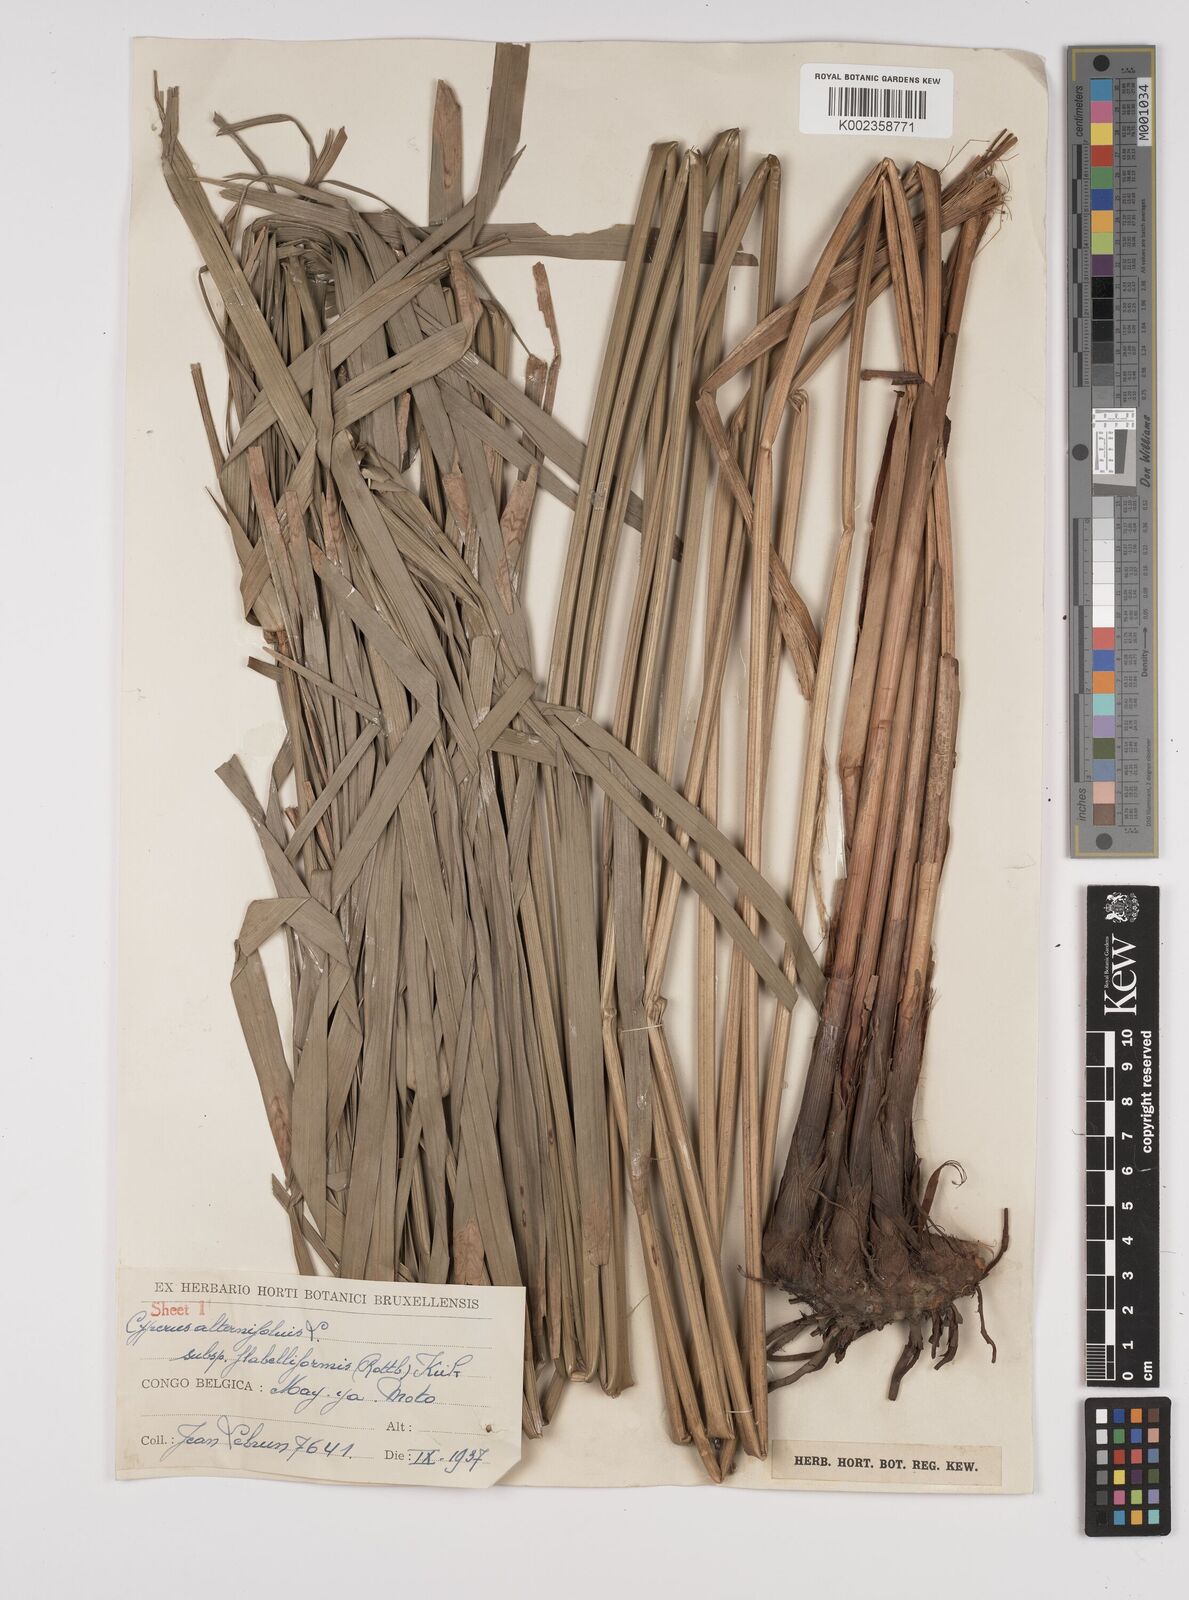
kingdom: Plantae
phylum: Tracheophyta
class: Liliopsida
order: Poales
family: Cyperaceae
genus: Cyperus
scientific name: Cyperus alternifolius
